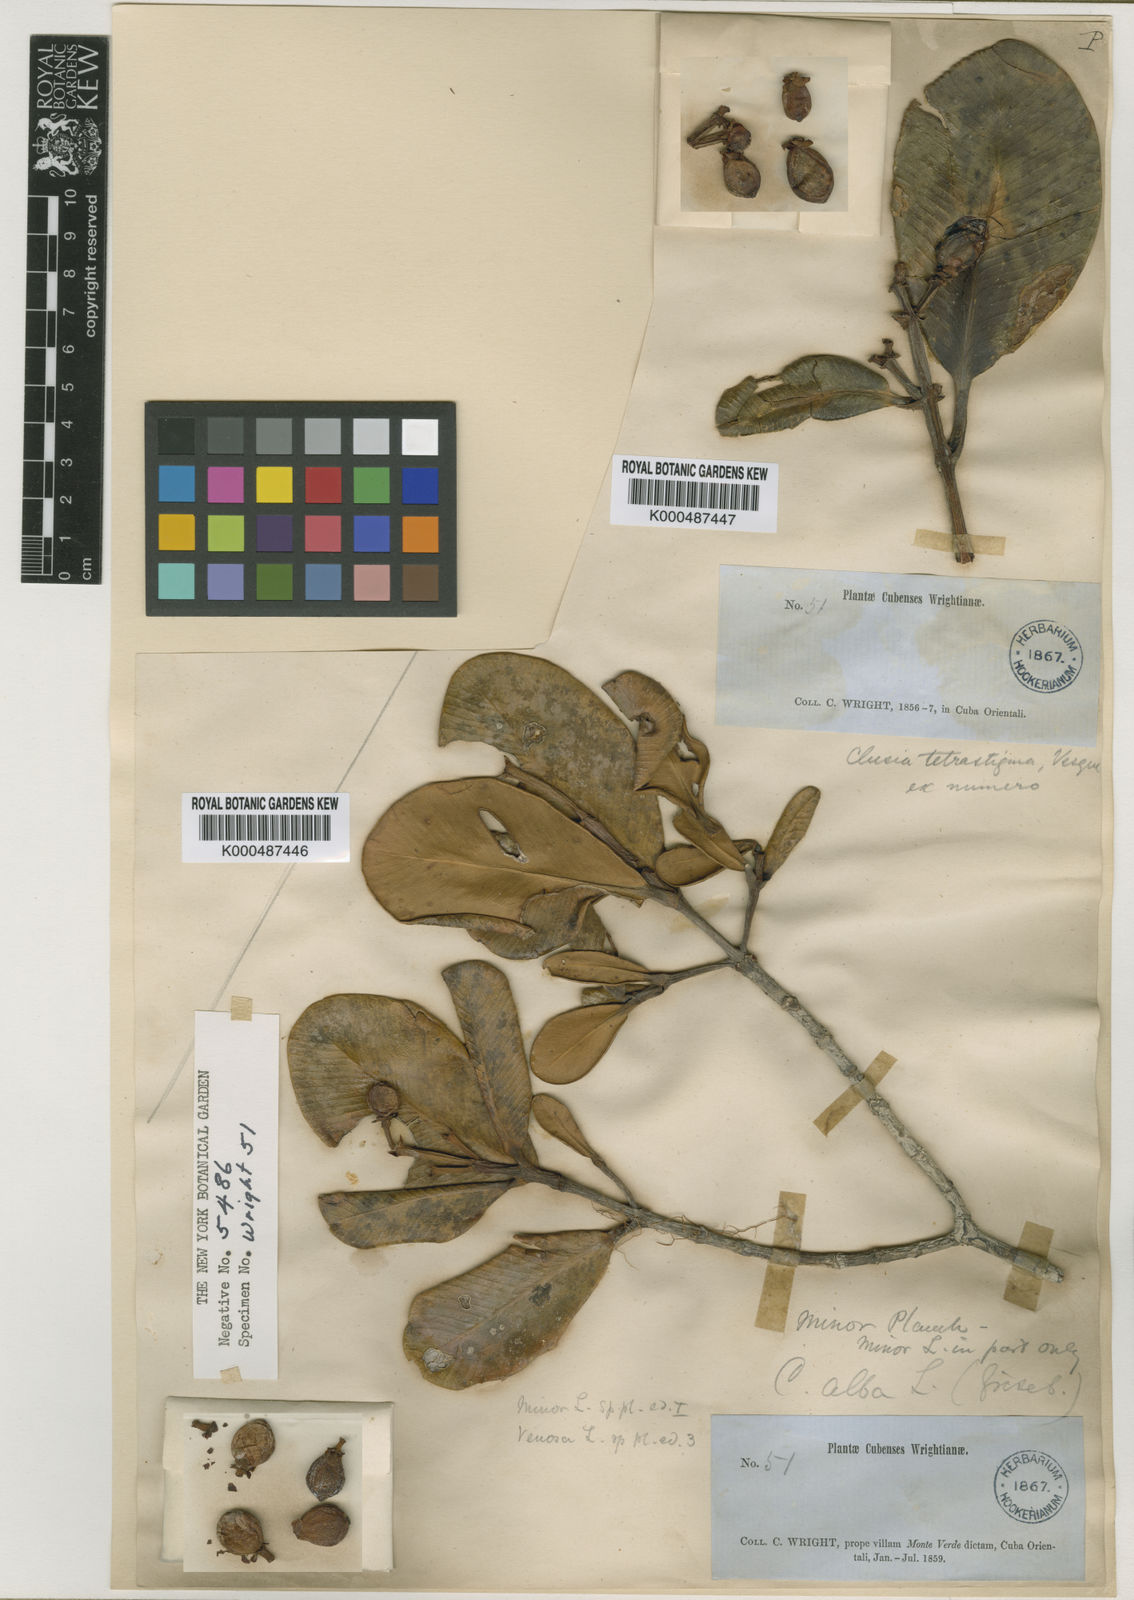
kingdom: Plantae
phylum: Tracheophyta
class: Magnoliopsida
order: Malpighiales
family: Clusiaceae
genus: Clusia
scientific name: Clusia tetrastigma
